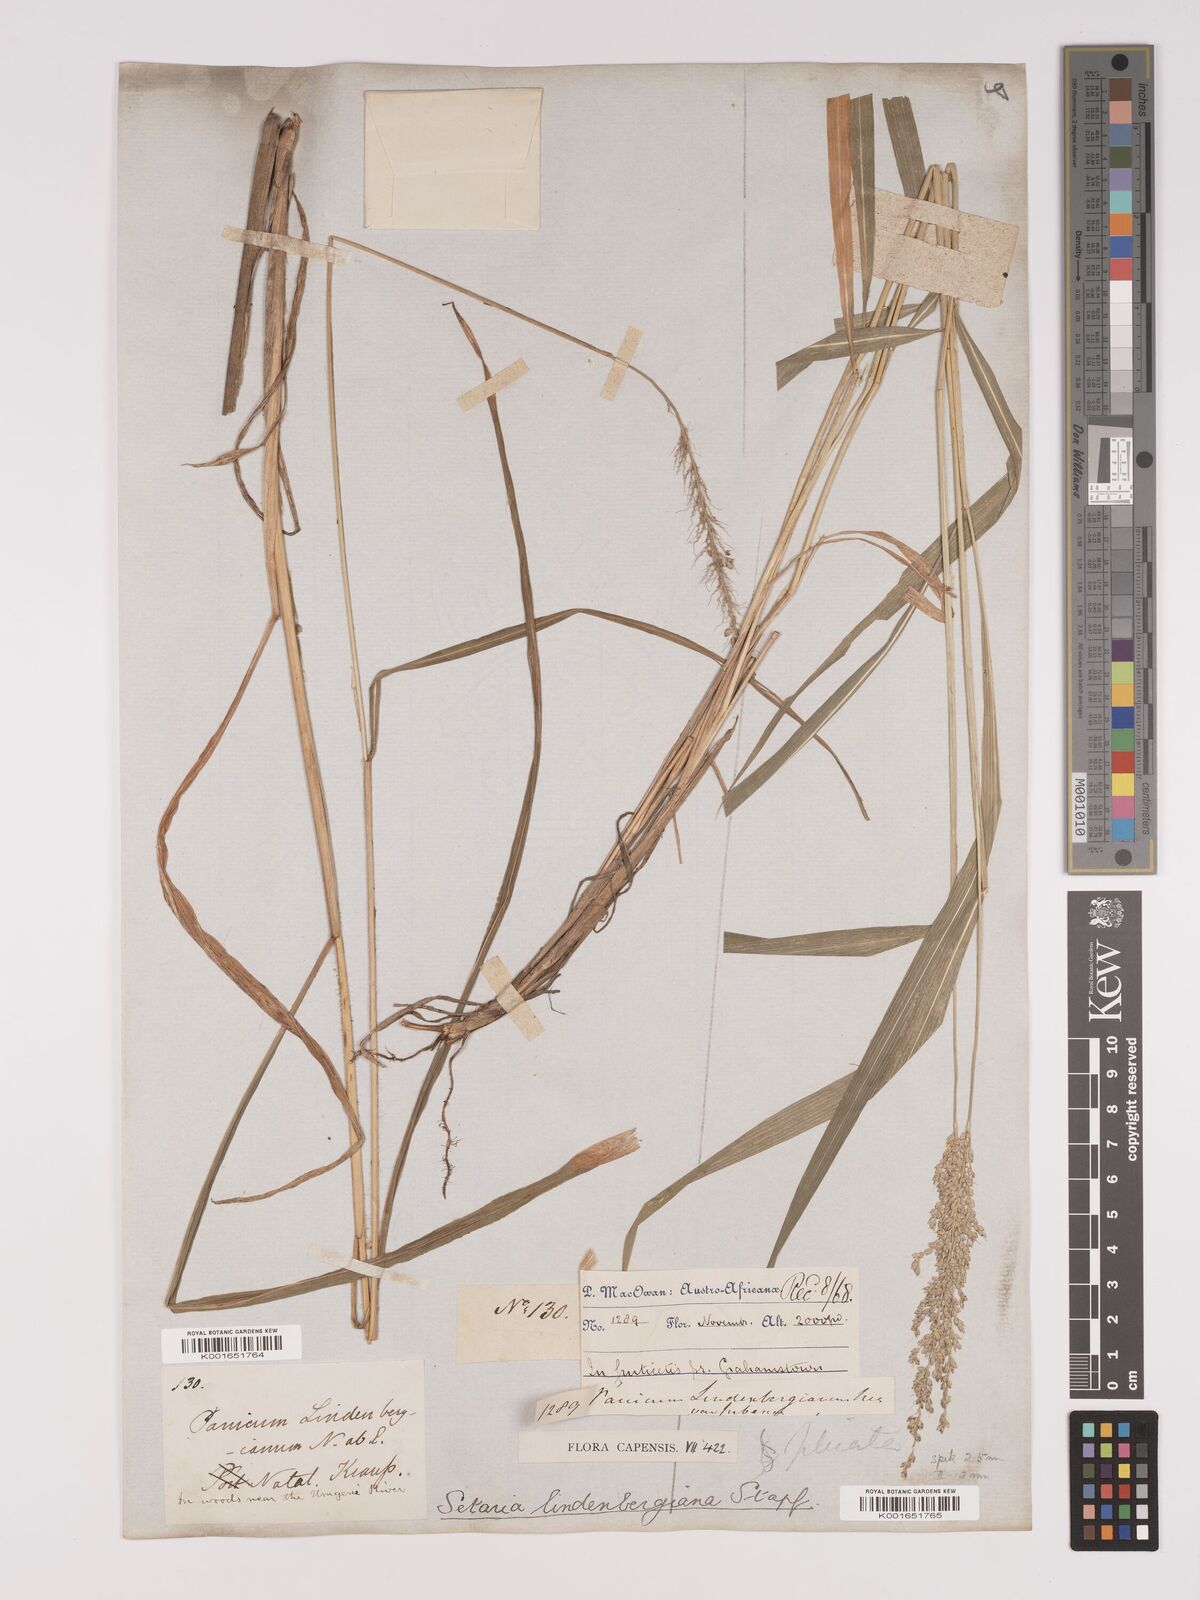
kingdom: Plantae
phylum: Tracheophyta
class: Liliopsida
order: Poales
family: Poaceae
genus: Setaria
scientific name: Setaria lindenbergiana
